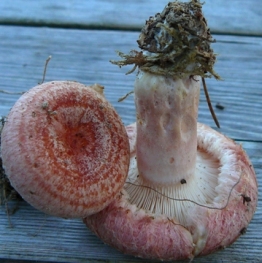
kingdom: Fungi
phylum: Basidiomycota
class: Agaricomycetes
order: Russulales
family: Russulaceae
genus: Lactarius
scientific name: Lactarius torminosus
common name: skægget mælkehat
